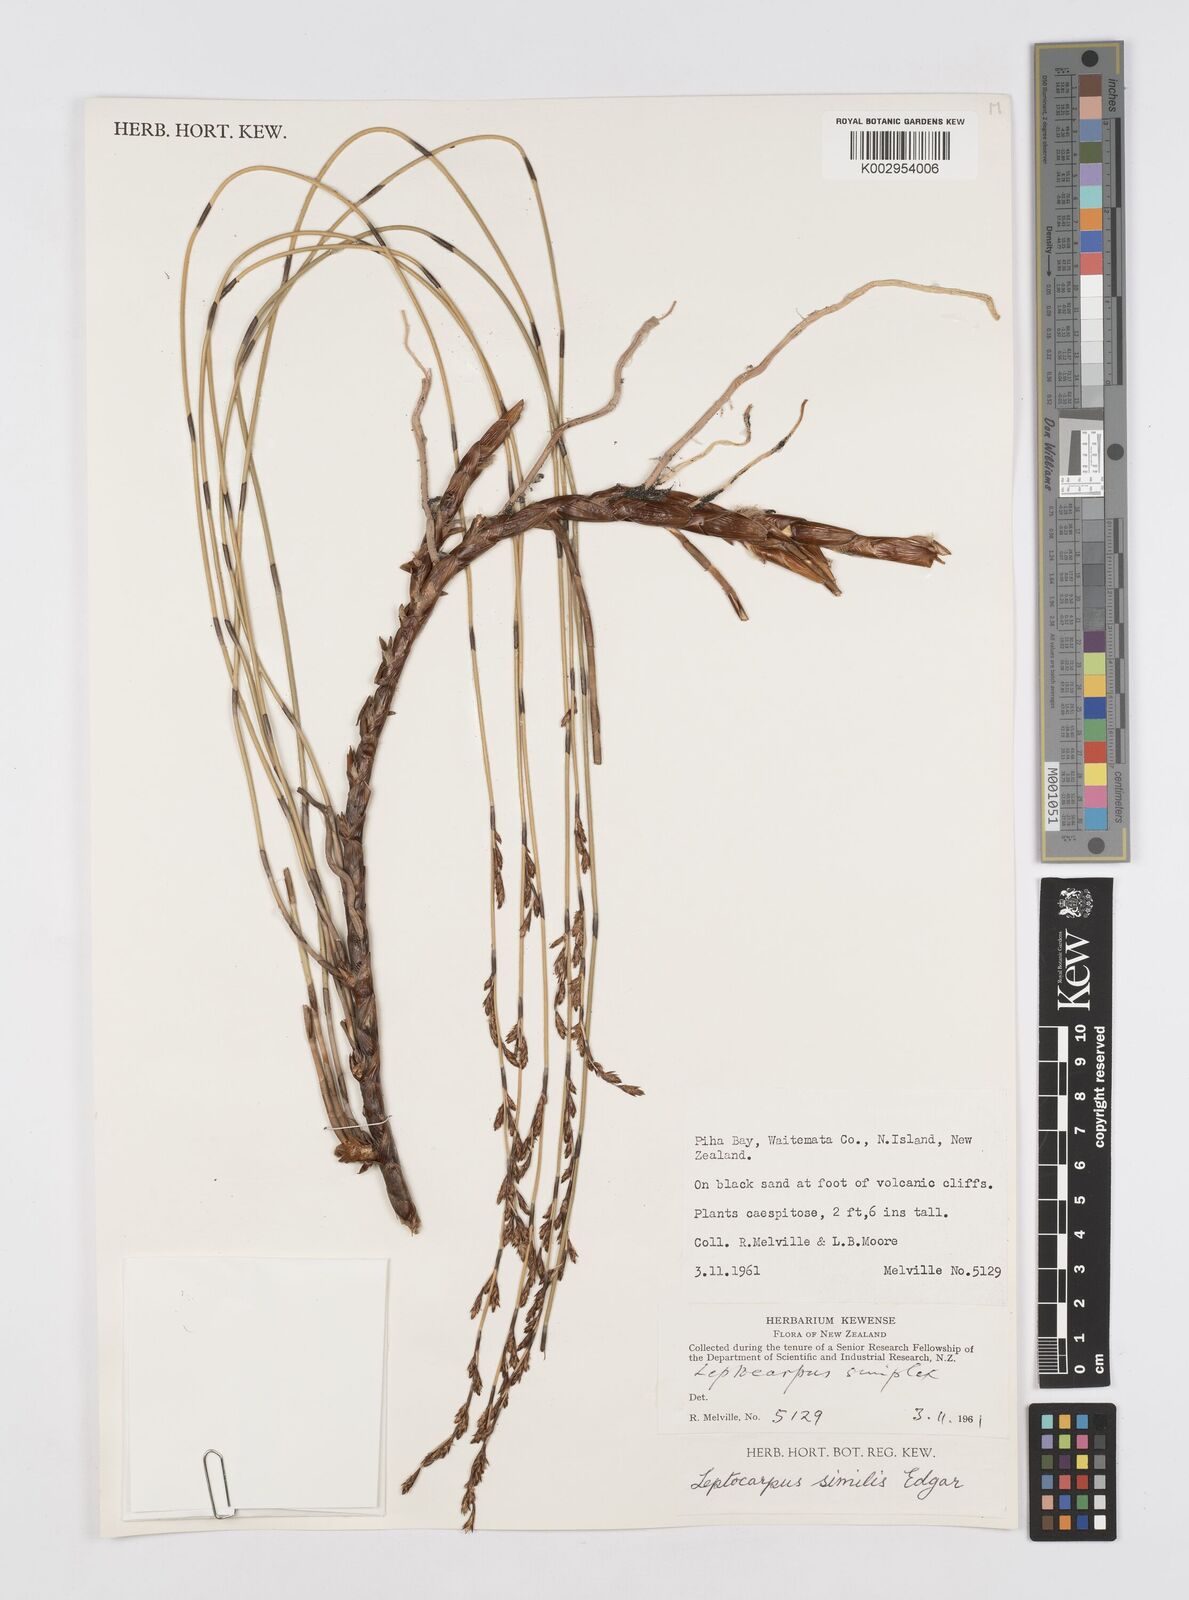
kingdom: Plantae
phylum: Tracheophyta
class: Liliopsida
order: Poales
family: Restionaceae
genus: Apodasmia
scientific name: Apodasmia similis
